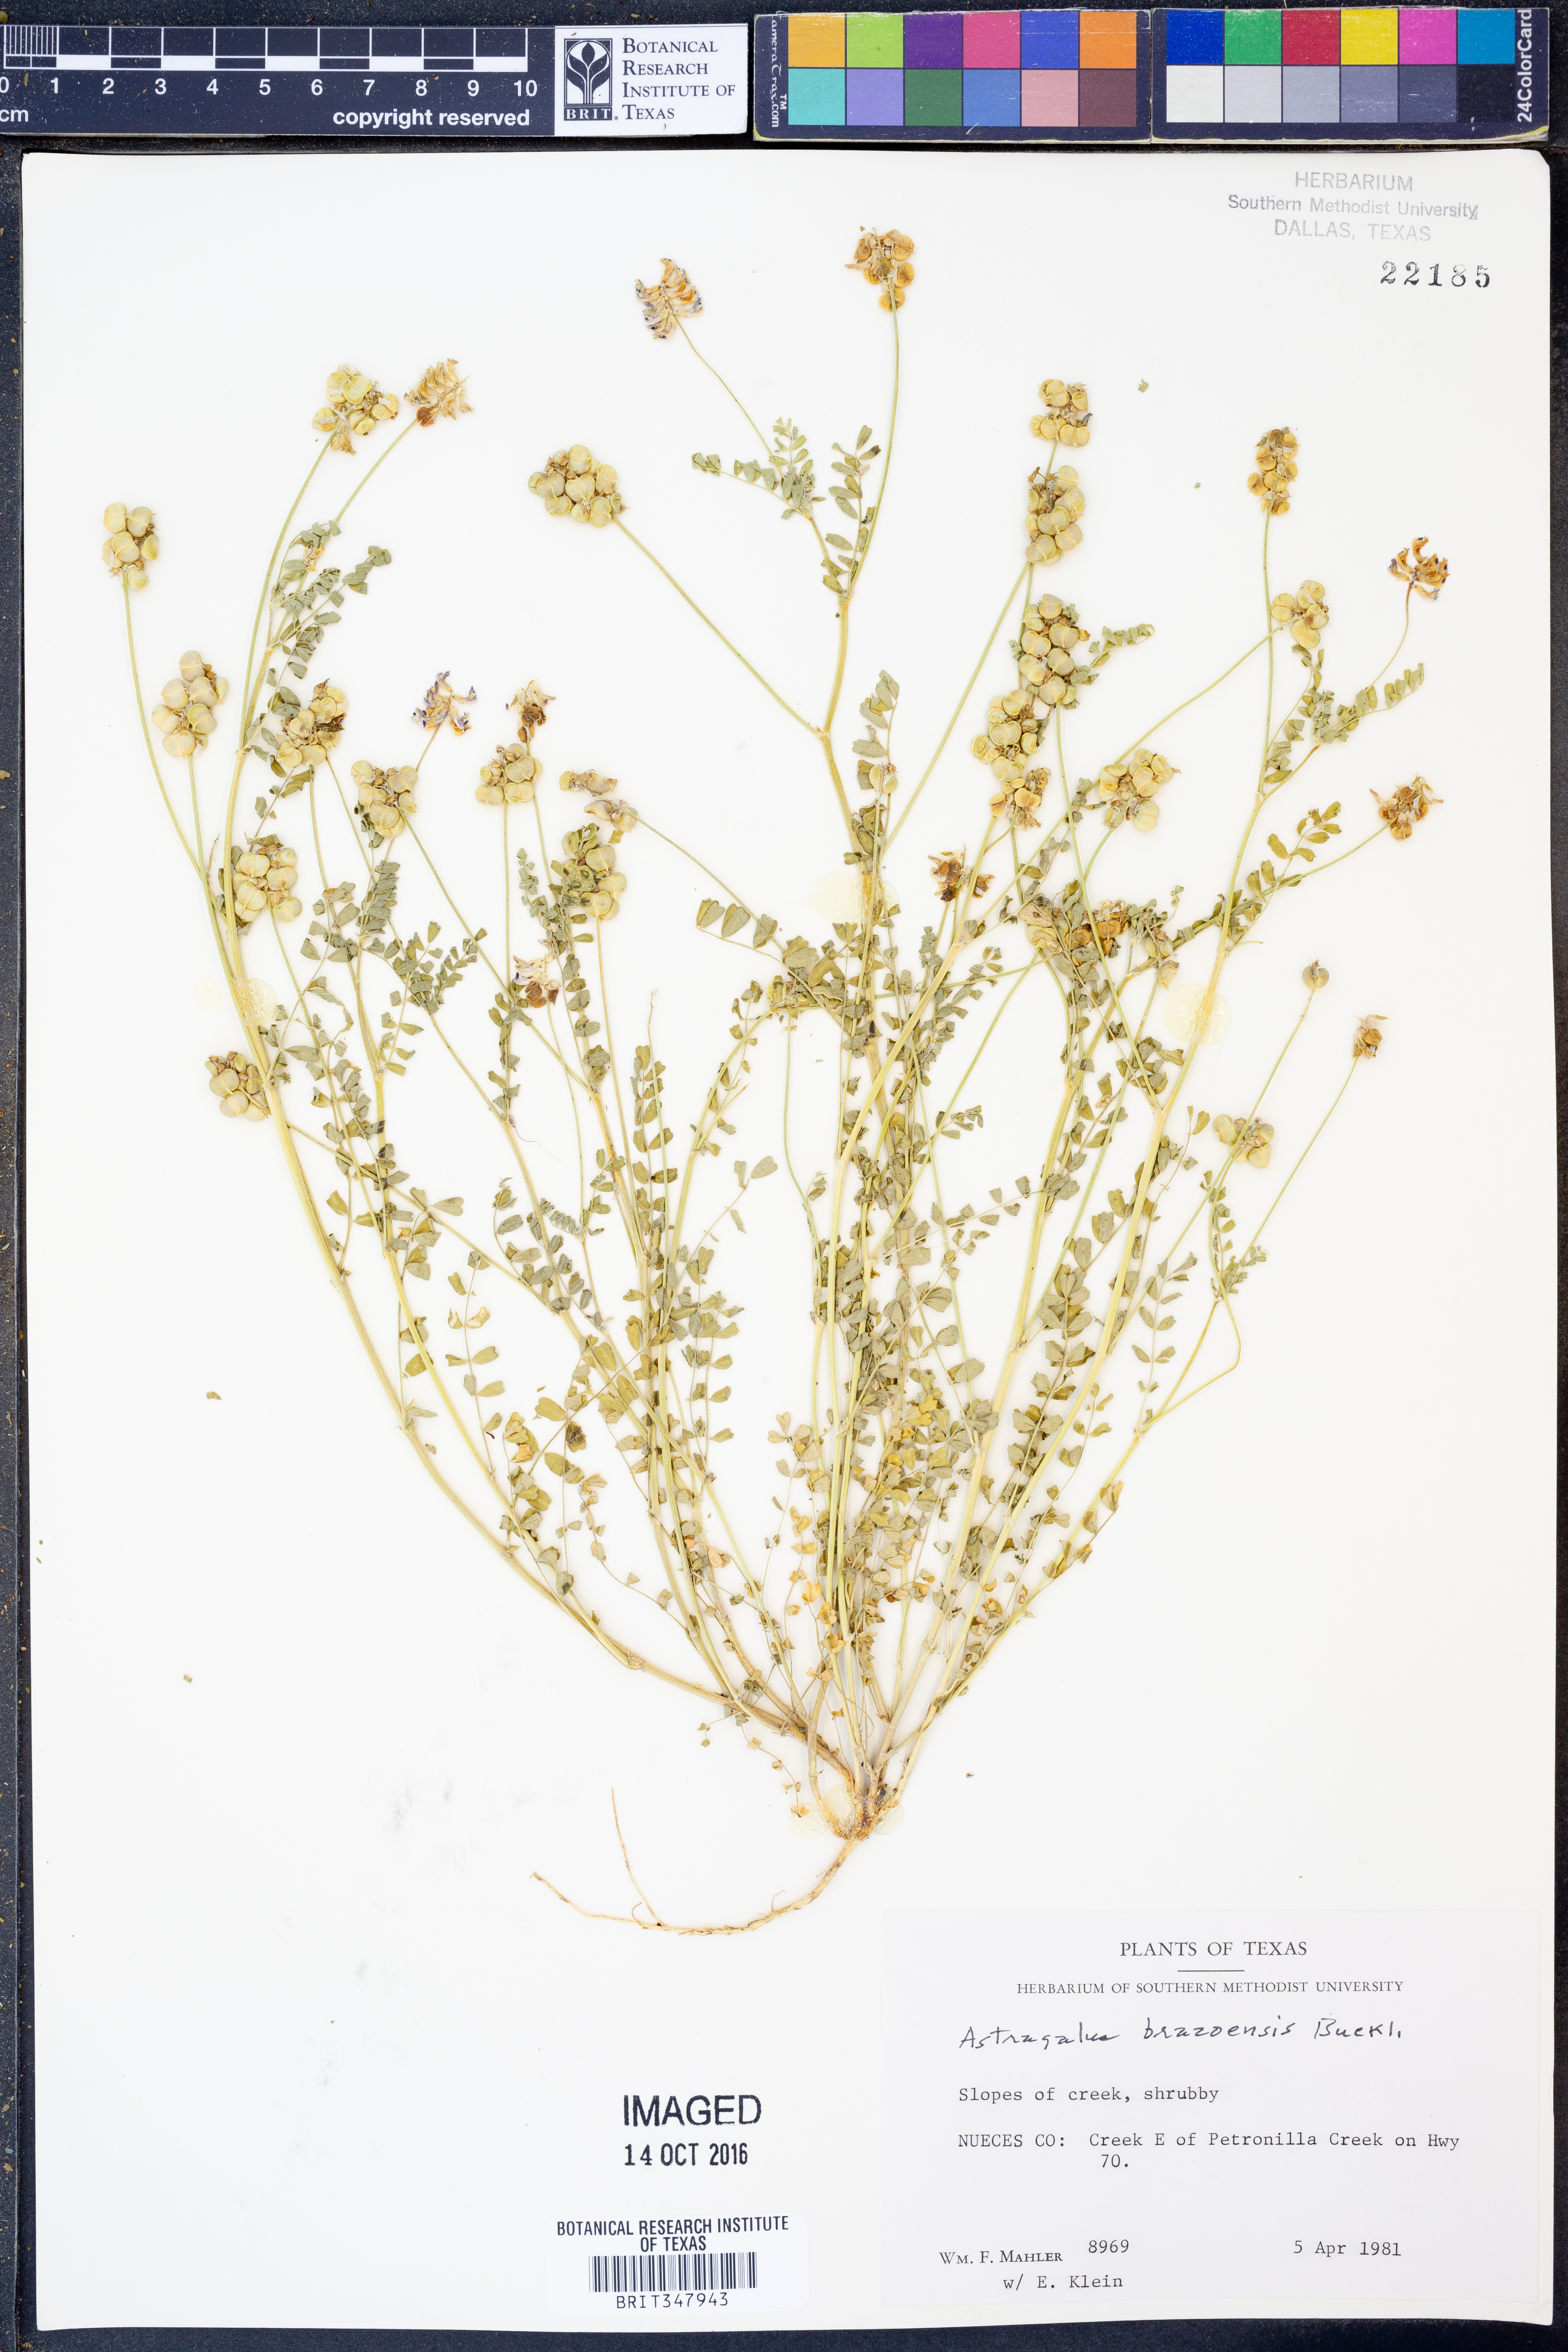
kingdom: Plantae
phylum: Tracheophyta
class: Magnoliopsida
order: Fabales
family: Fabaceae
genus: Astragalus
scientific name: Astragalus brazoensis
